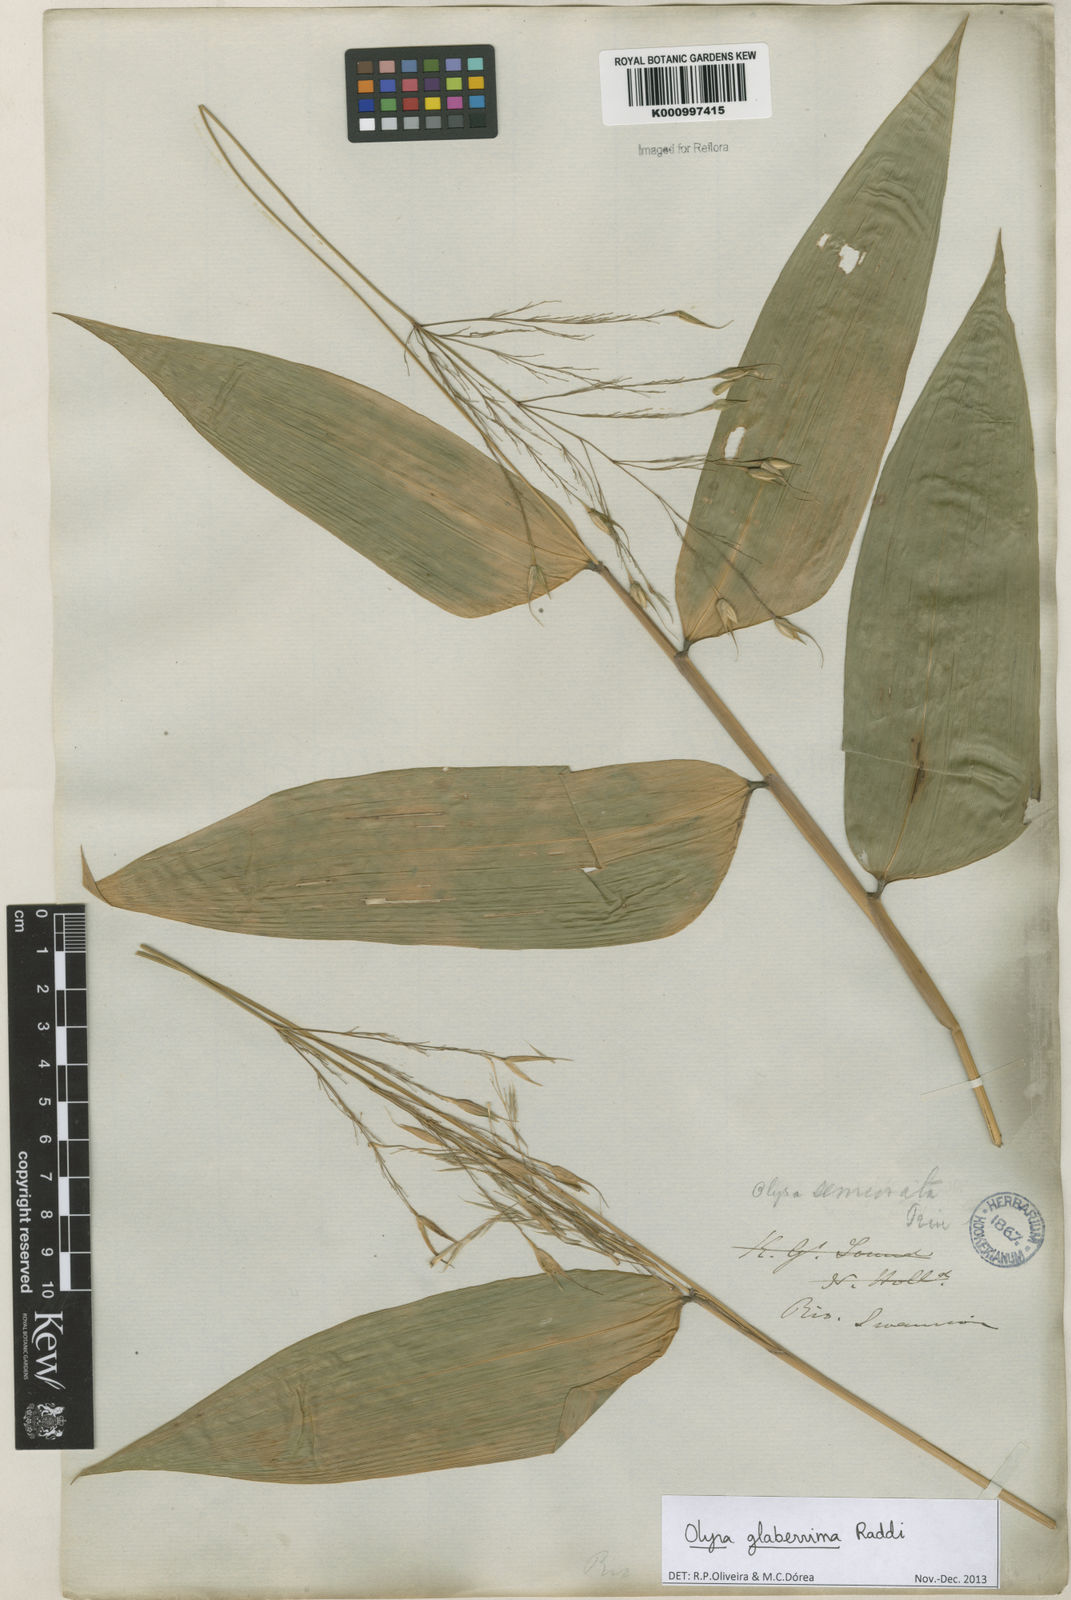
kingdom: Plantae
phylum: Tracheophyta
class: Liliopsida
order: Poales
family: Poaceae
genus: Olyra
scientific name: Olyra glaberrima
